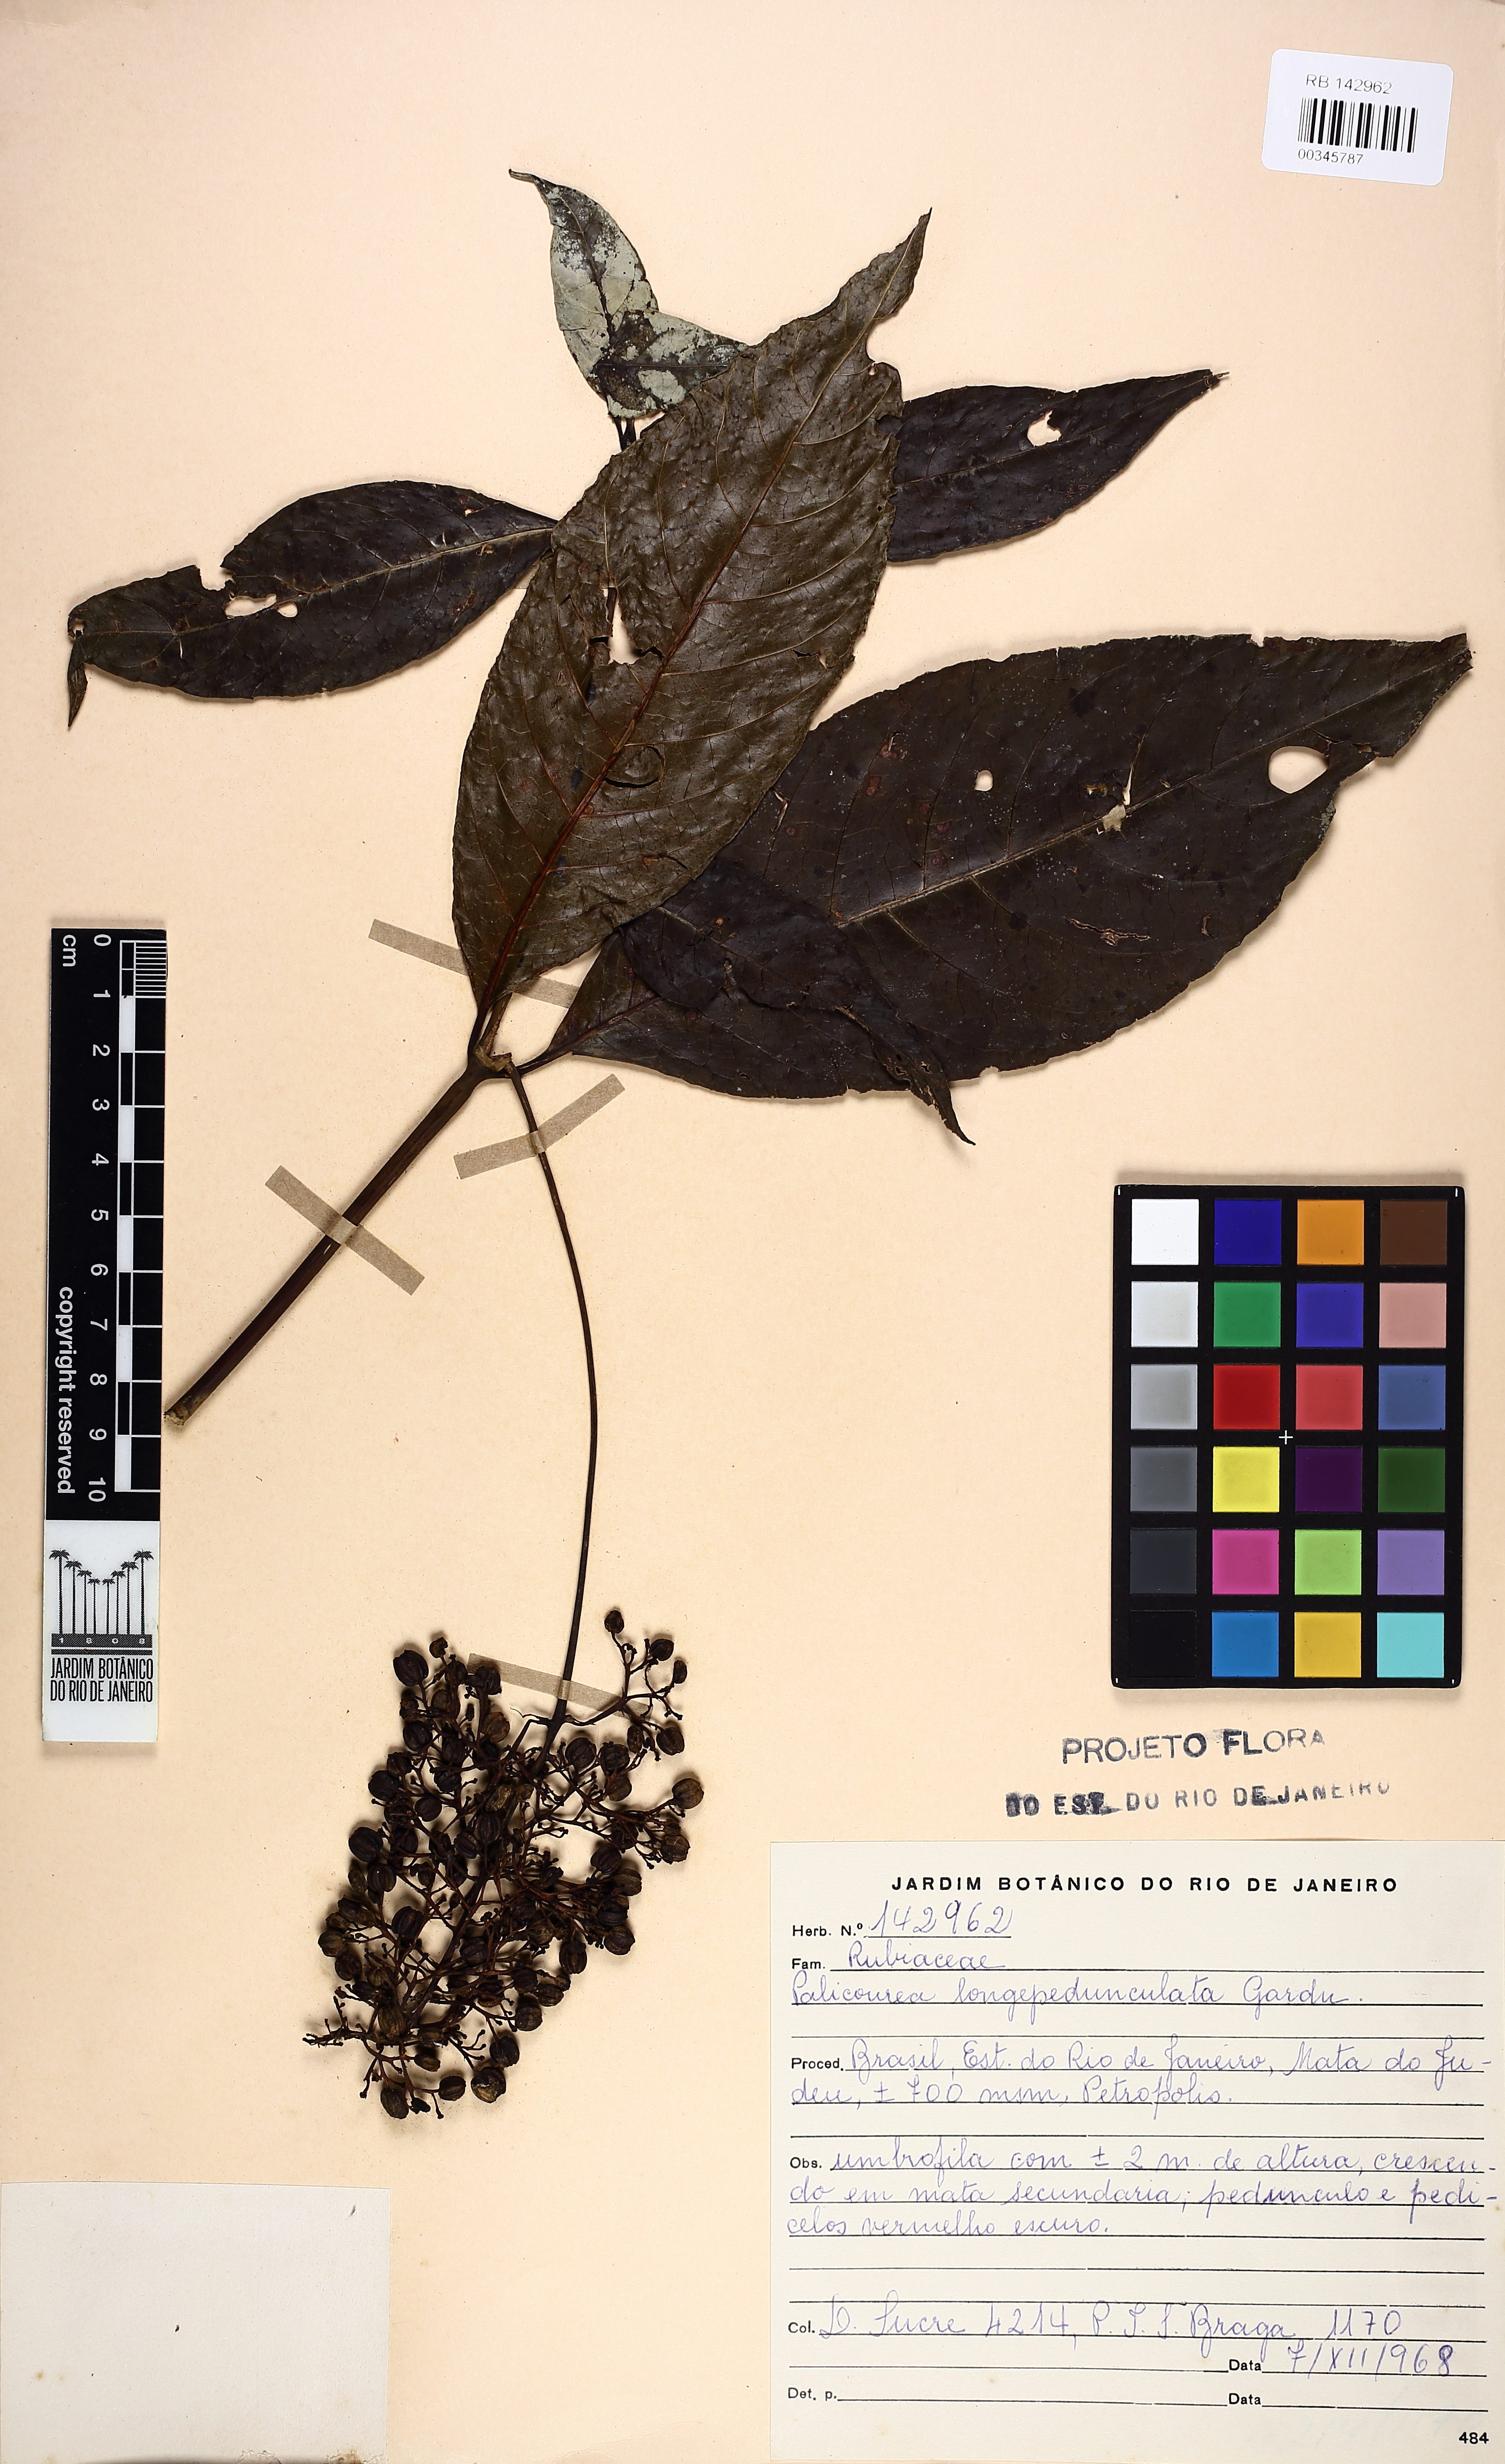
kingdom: Plantae
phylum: Tracheophyta
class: Magnoliopsida
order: Gentianales
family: Rubiaceae
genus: Palicourea
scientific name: Palicourea longipedunculata
